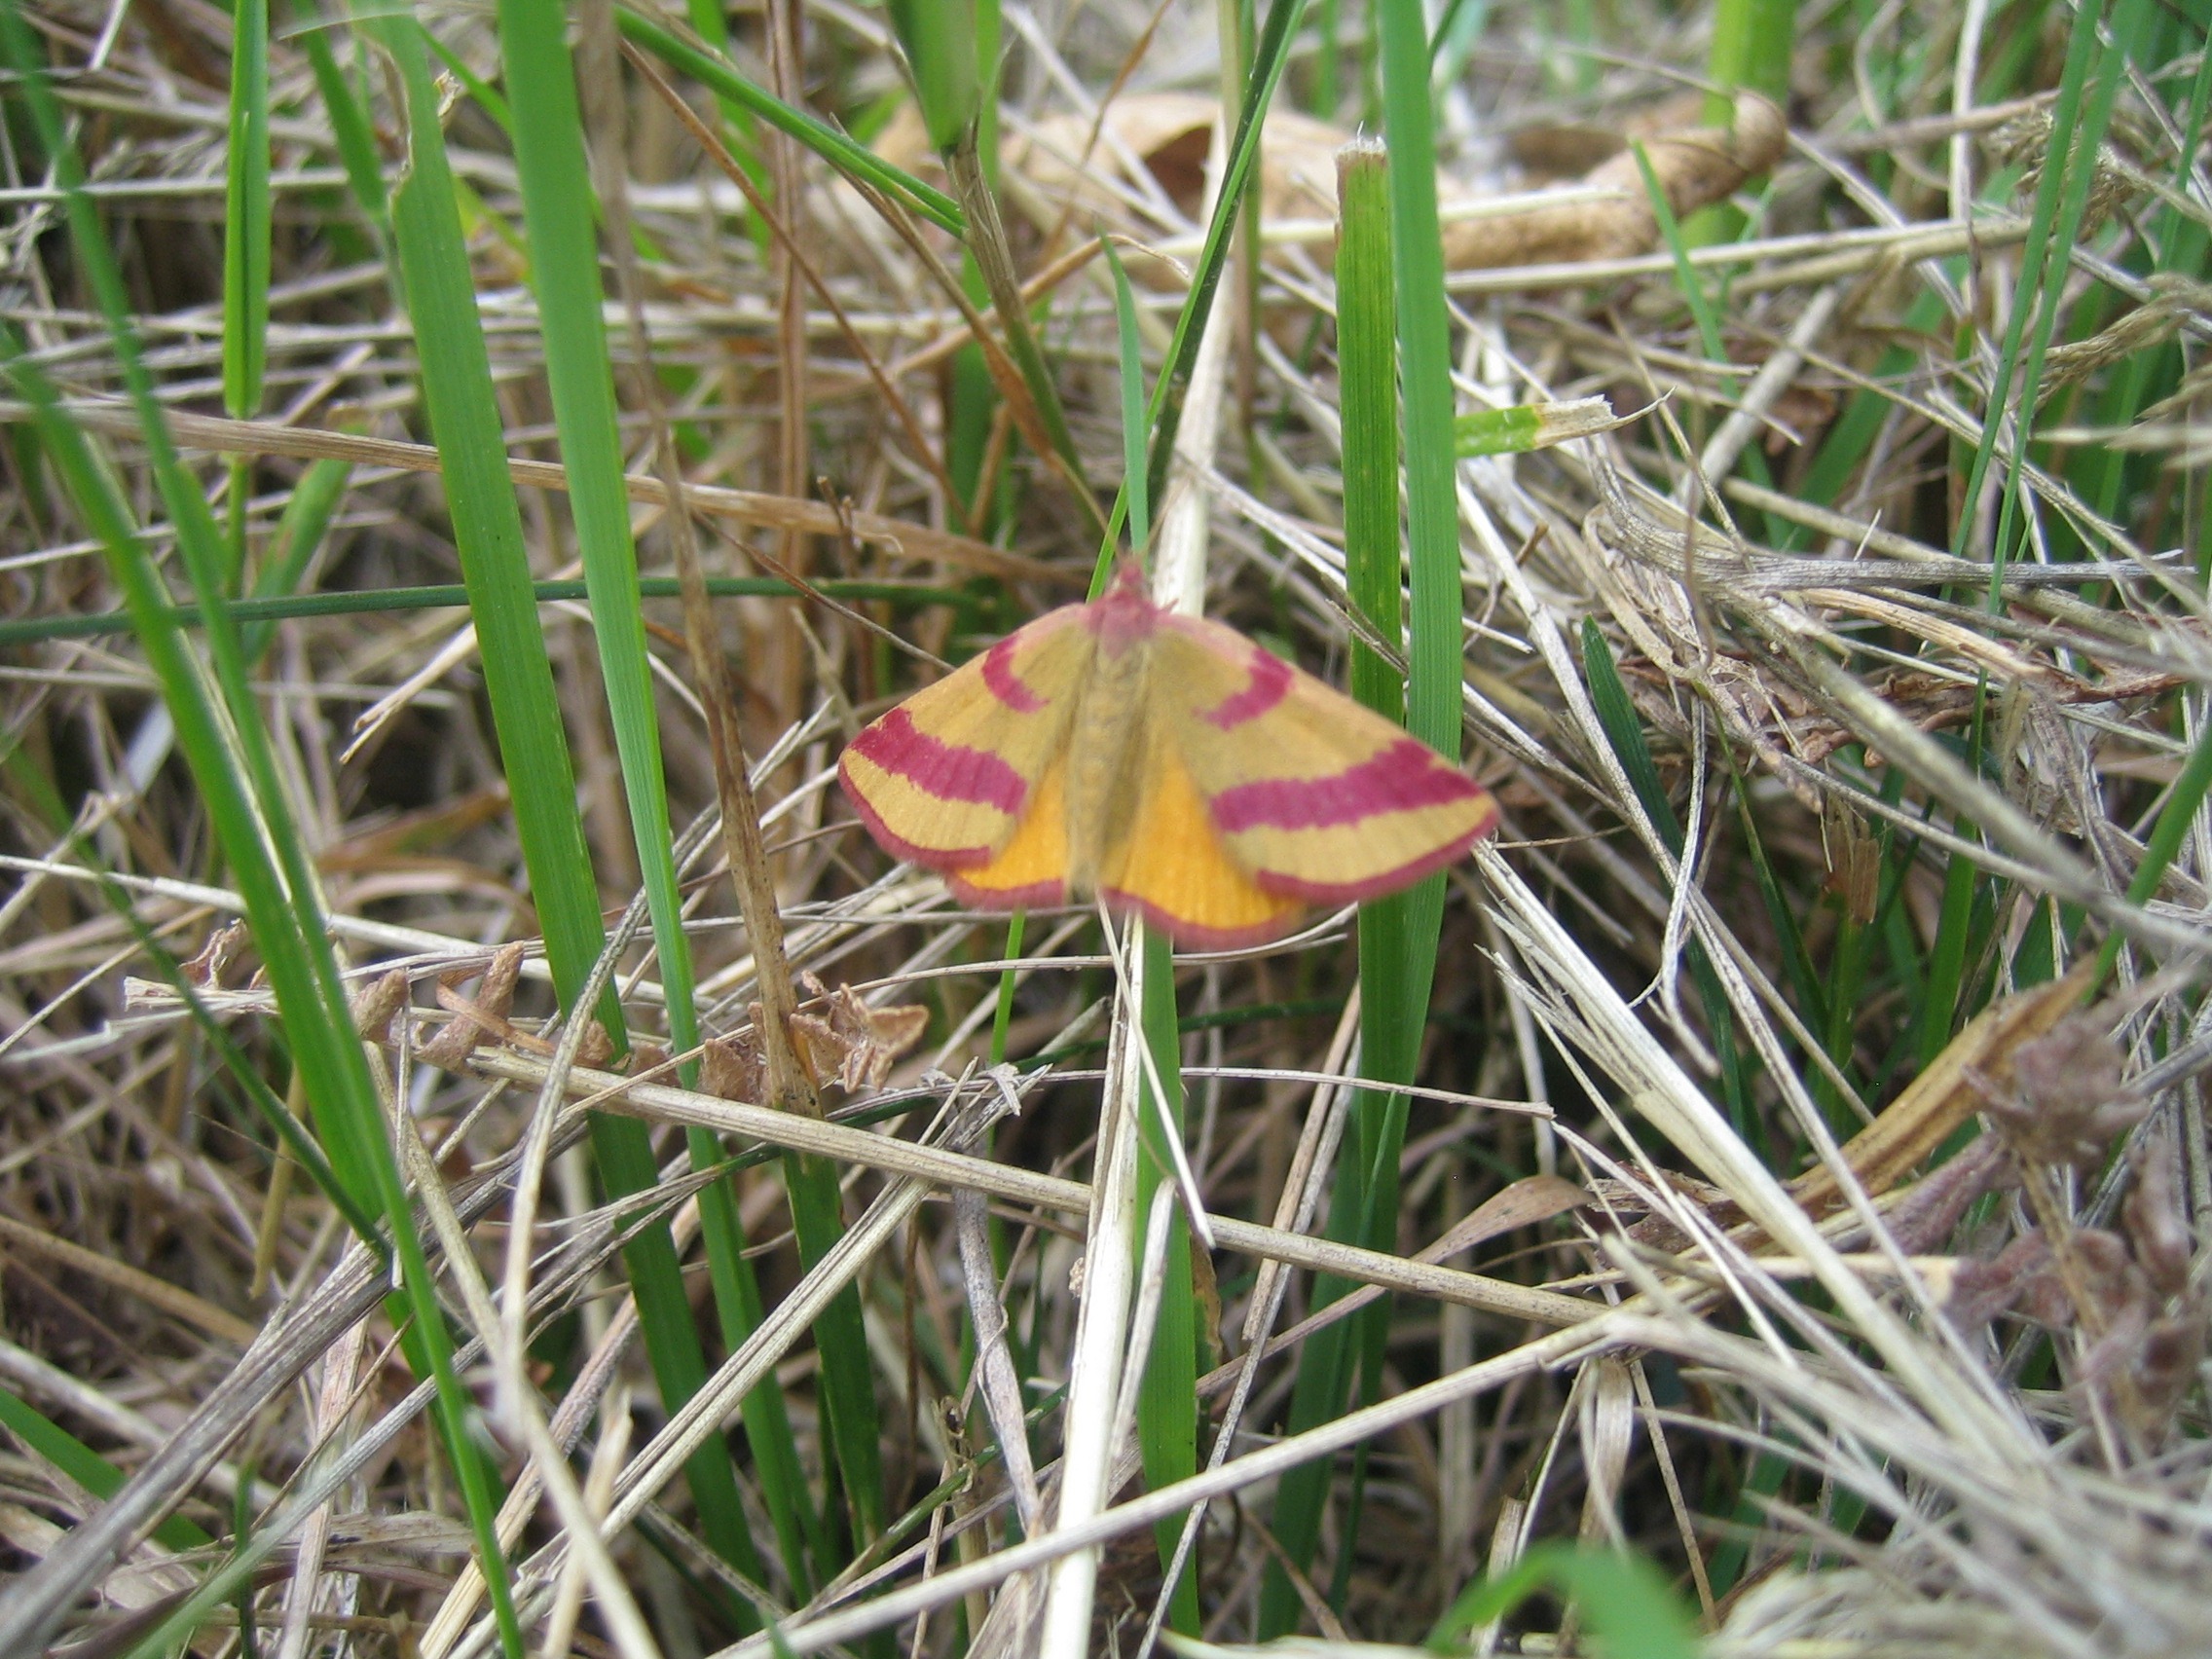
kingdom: Animalia
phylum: Arthropoda
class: Insecta
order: Lepidoptera
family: Geometridae
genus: Lythria
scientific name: Lythria cruentaria
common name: Purpurmåler
